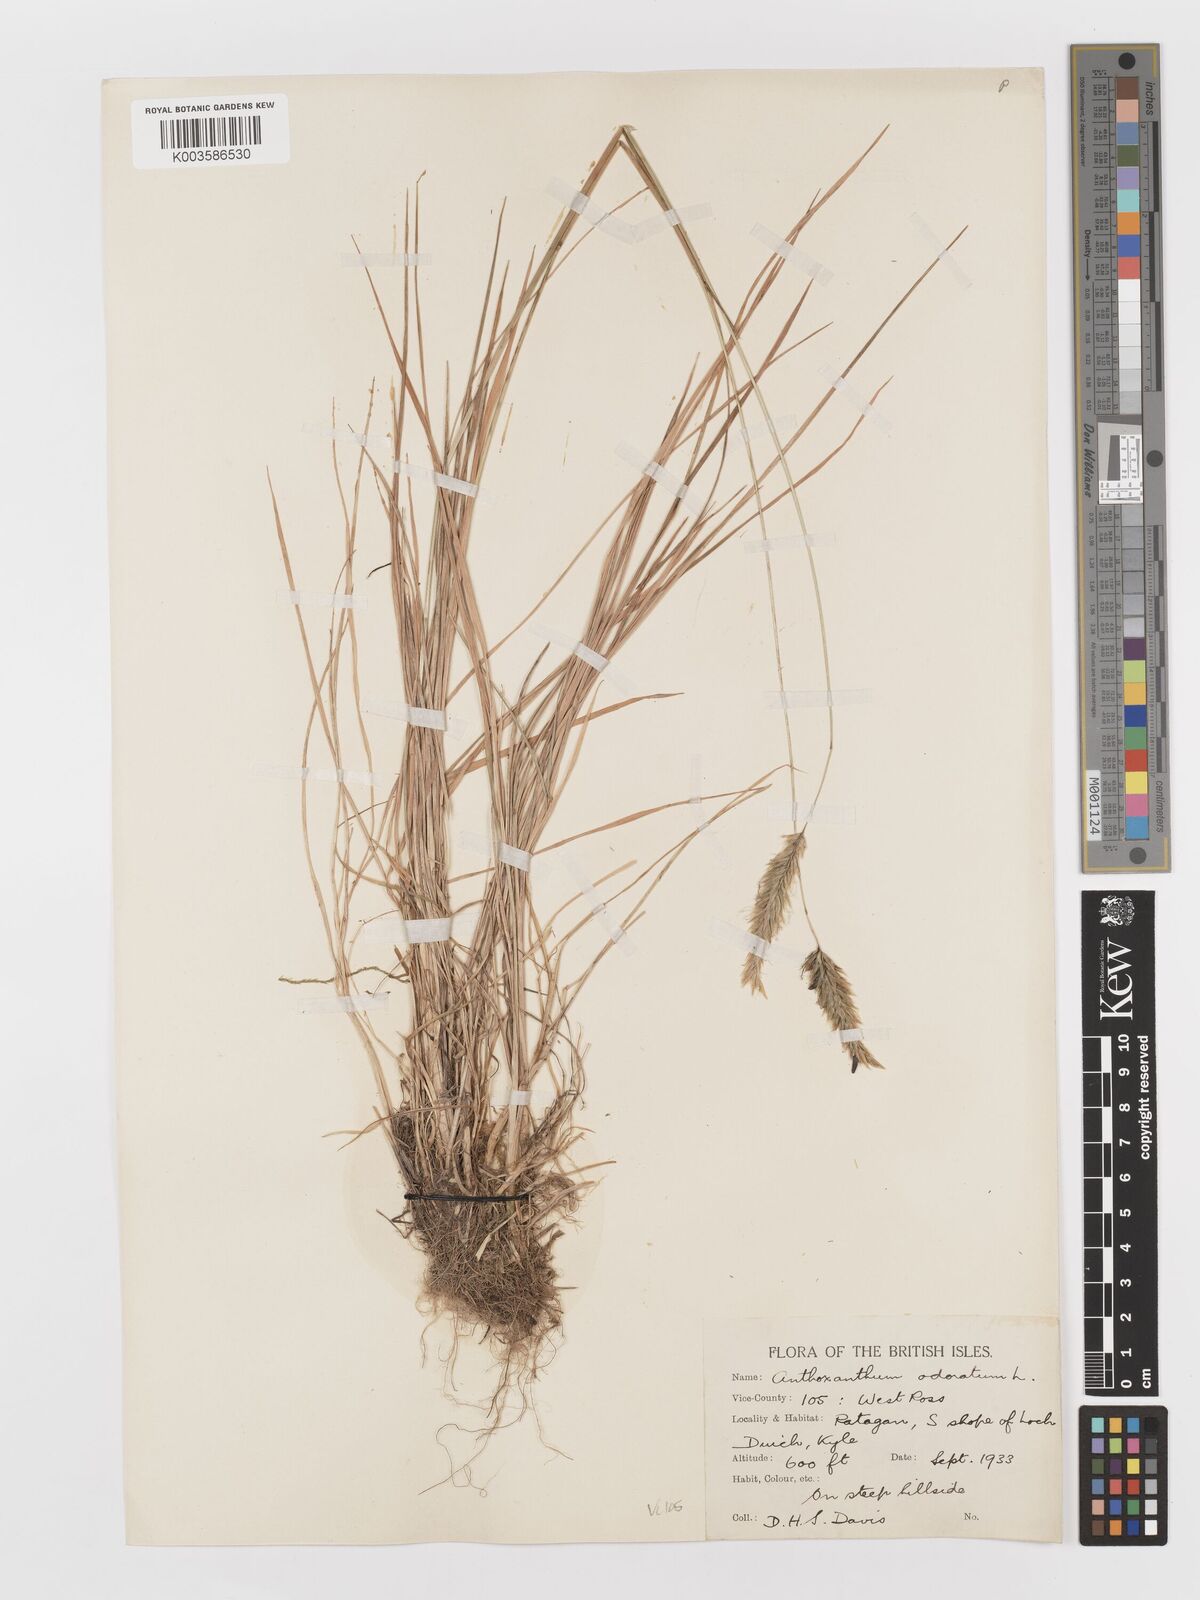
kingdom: Plantae
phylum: Tracheophyta
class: Liliopsida
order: Poales
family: Poaceae
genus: Anthoxanthum
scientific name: Anthoxanthum odoratum
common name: Sweet vernalgrass
